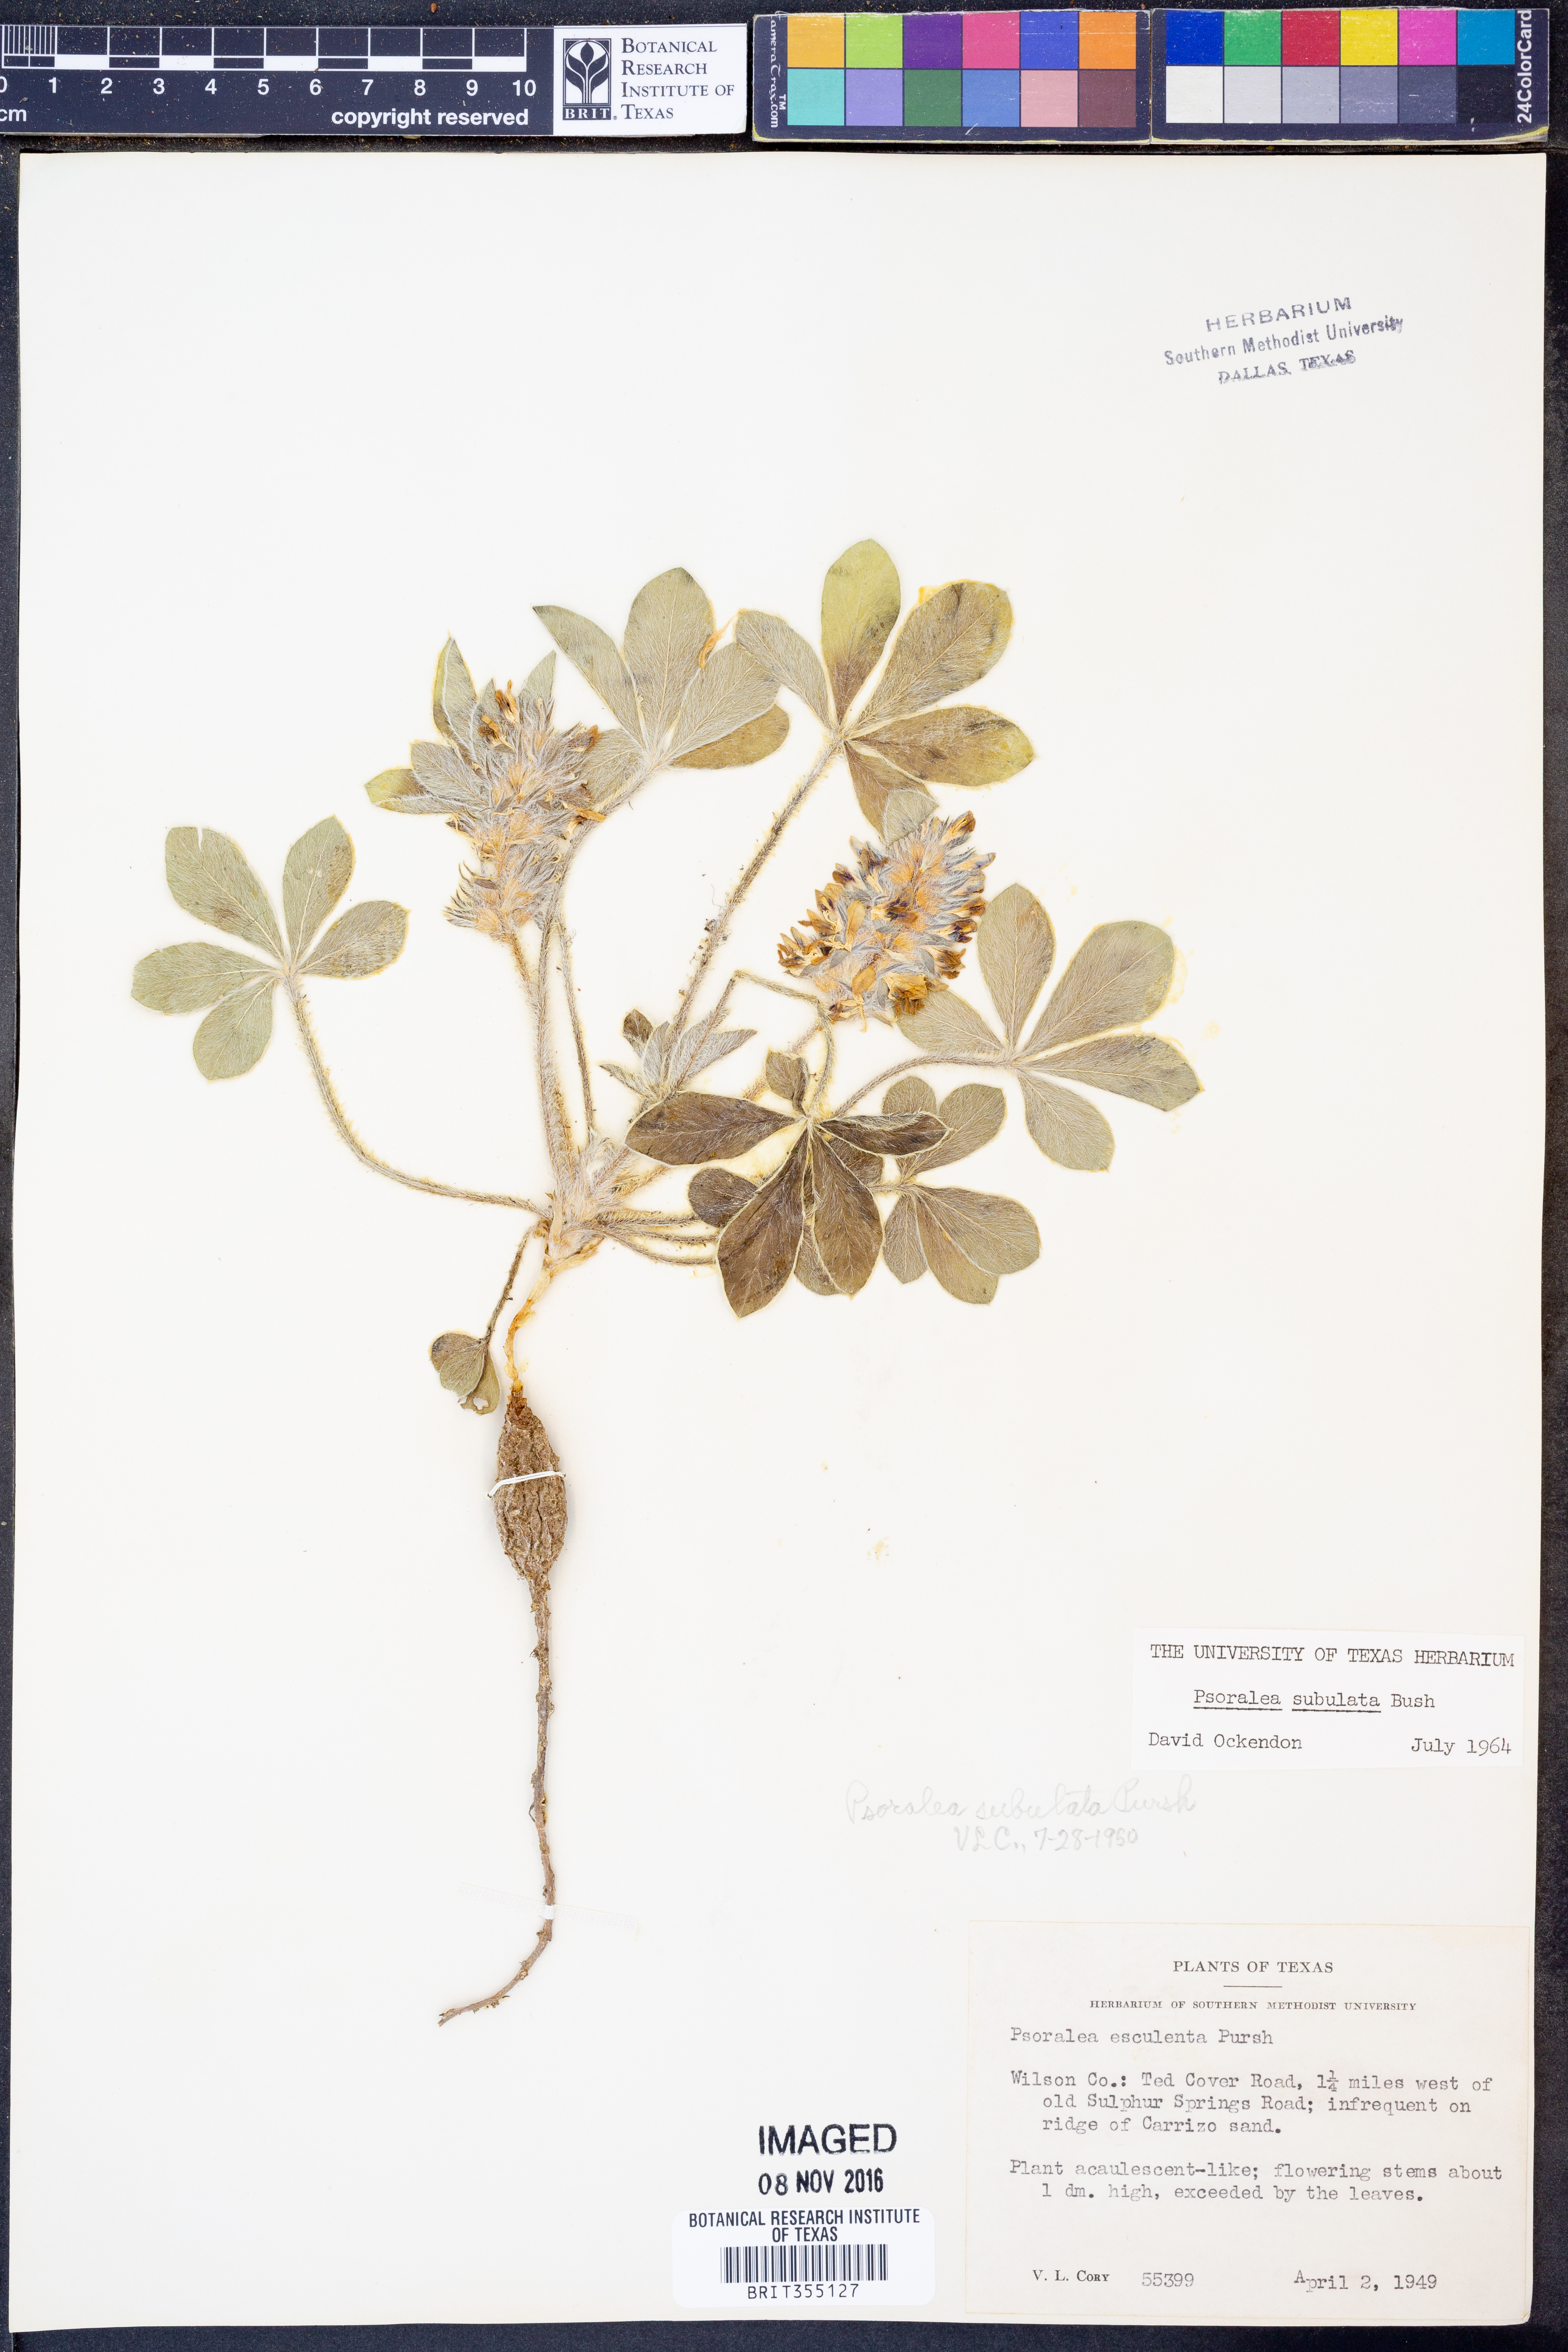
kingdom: Plantae
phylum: Tracheophyta
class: Magnoliopsida
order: Fabales
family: Fabaceae
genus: Pediomelum
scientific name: Pediomelum hypogaeum
